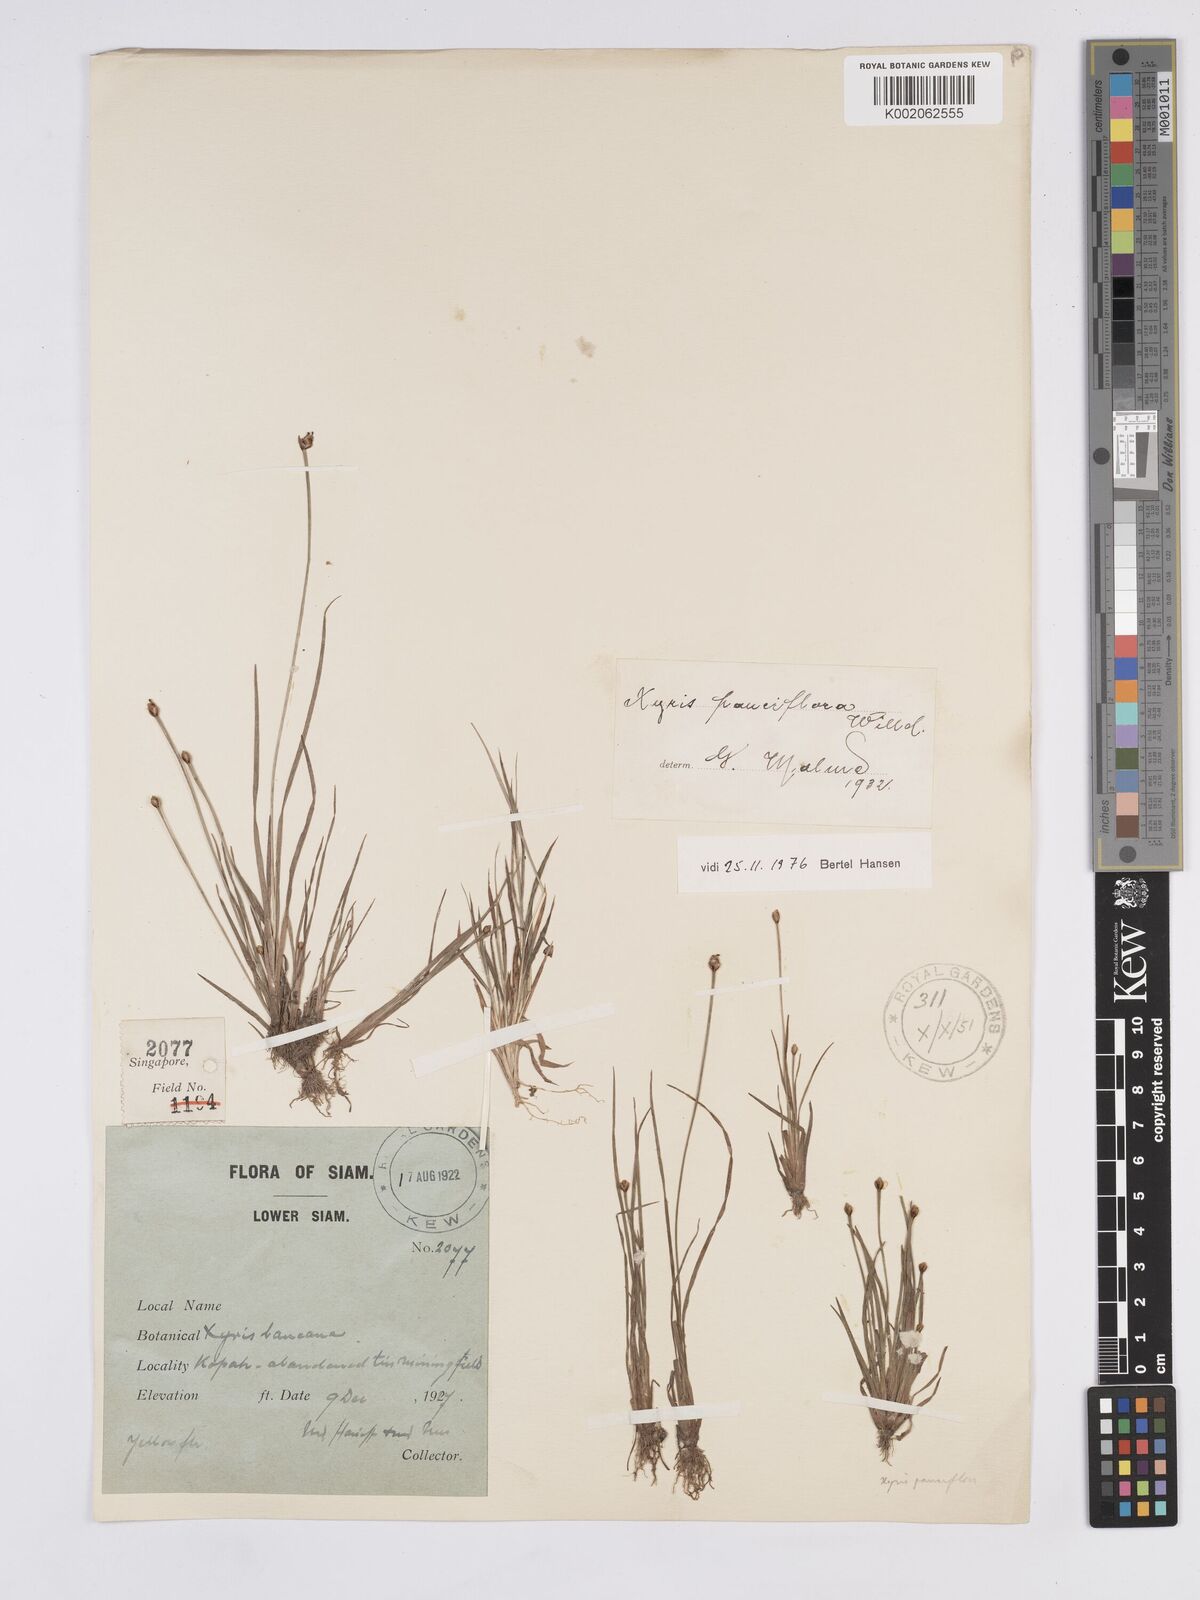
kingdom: Plantae
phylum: Tracheophyta
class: Liliopsida
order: Poales
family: Xyridaceae
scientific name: Xyridaceae
